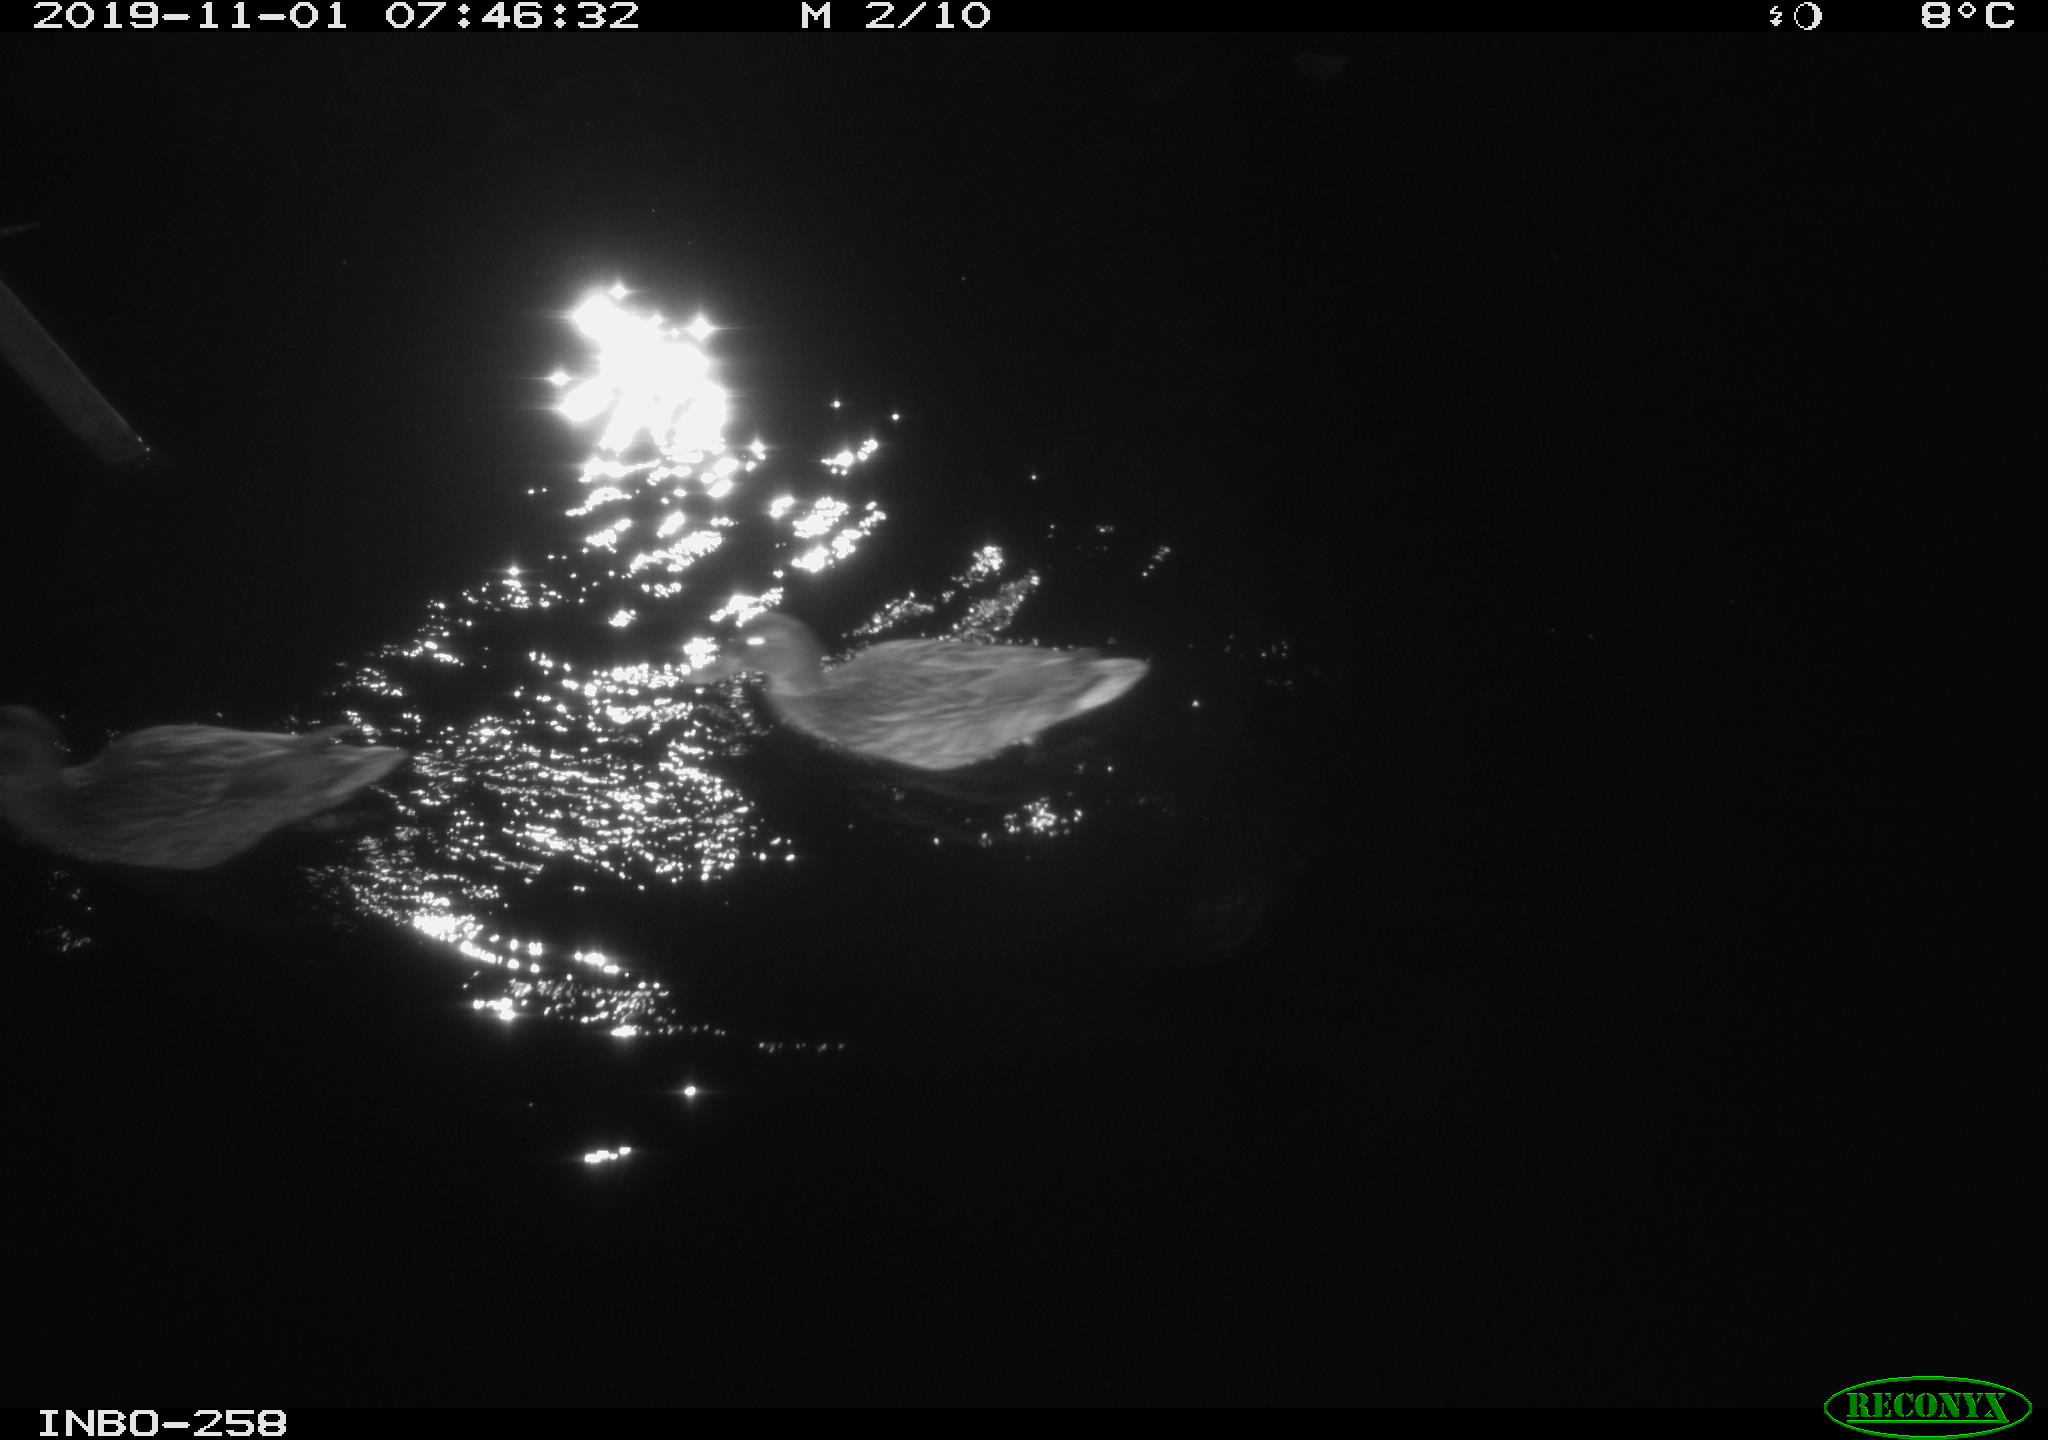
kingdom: Animalia
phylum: Chordata
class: Aves
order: Anseriformes
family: Anatidae
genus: Anas
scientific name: Anas platyrhynchos
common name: Mallard
